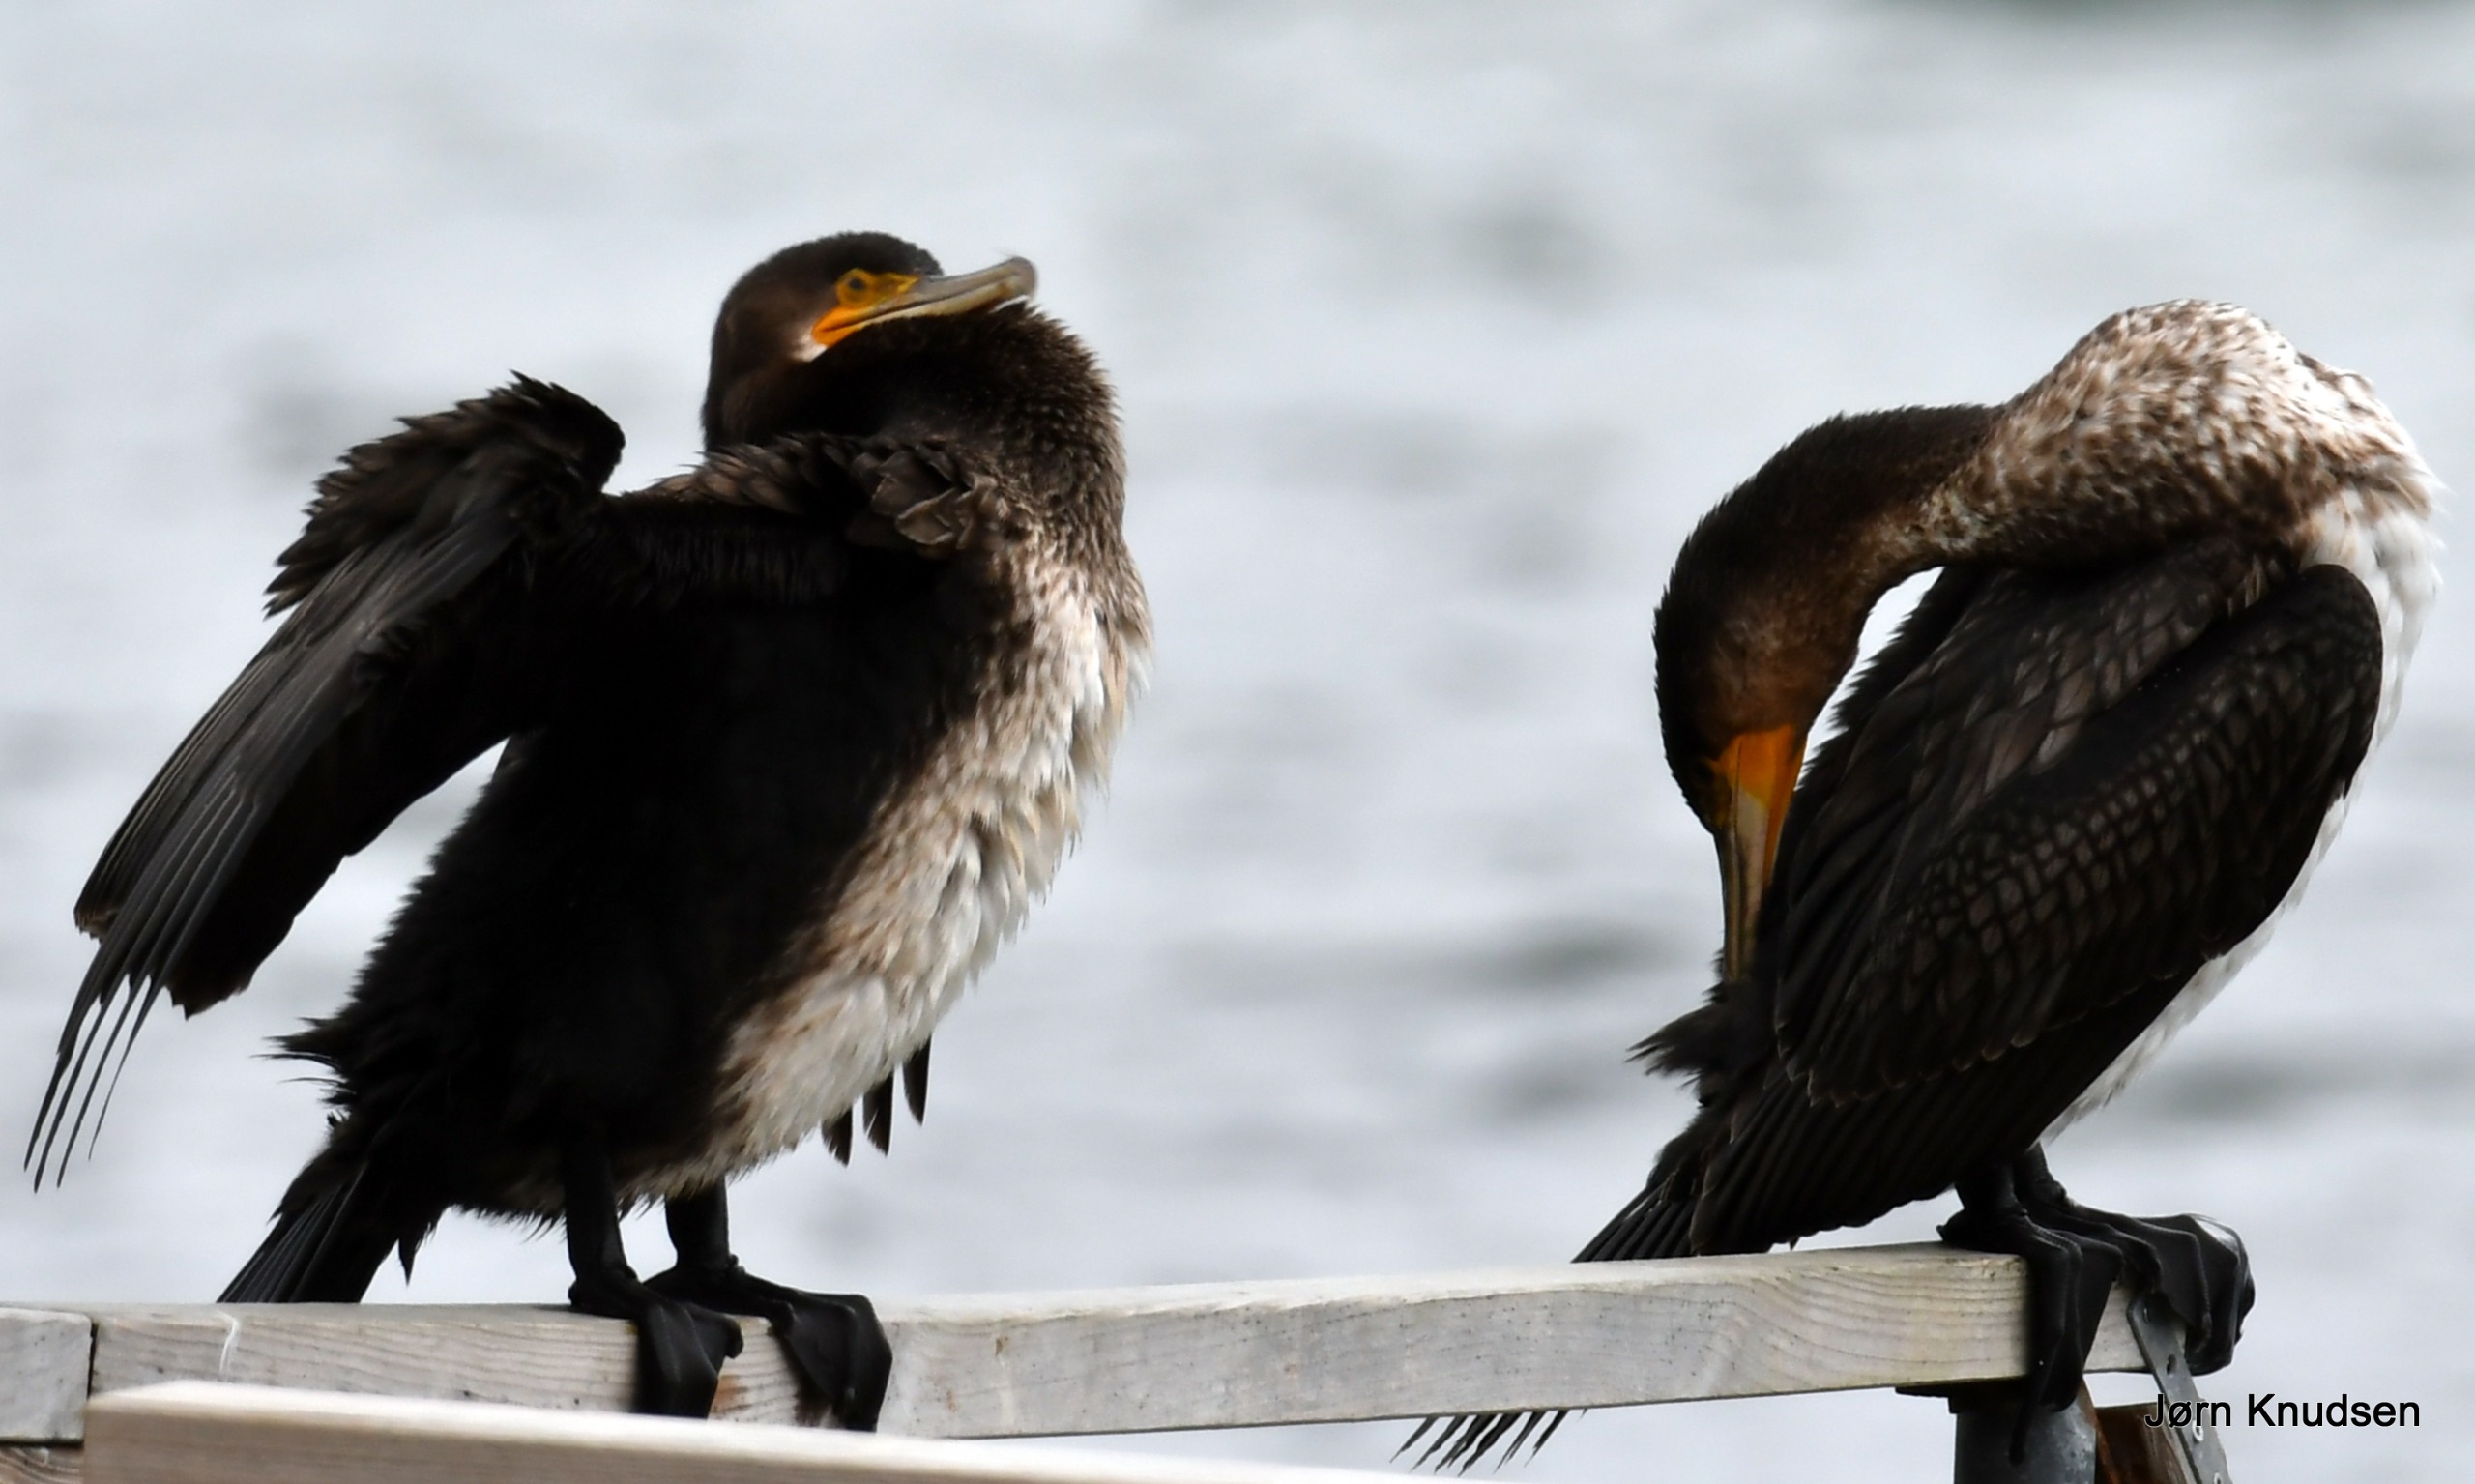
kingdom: Animalia
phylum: Chordata
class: Aves
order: Suliformes
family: Phalacrocoracidae
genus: Phalacrocorax
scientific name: Phalacrocorax carbo
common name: Skarv
